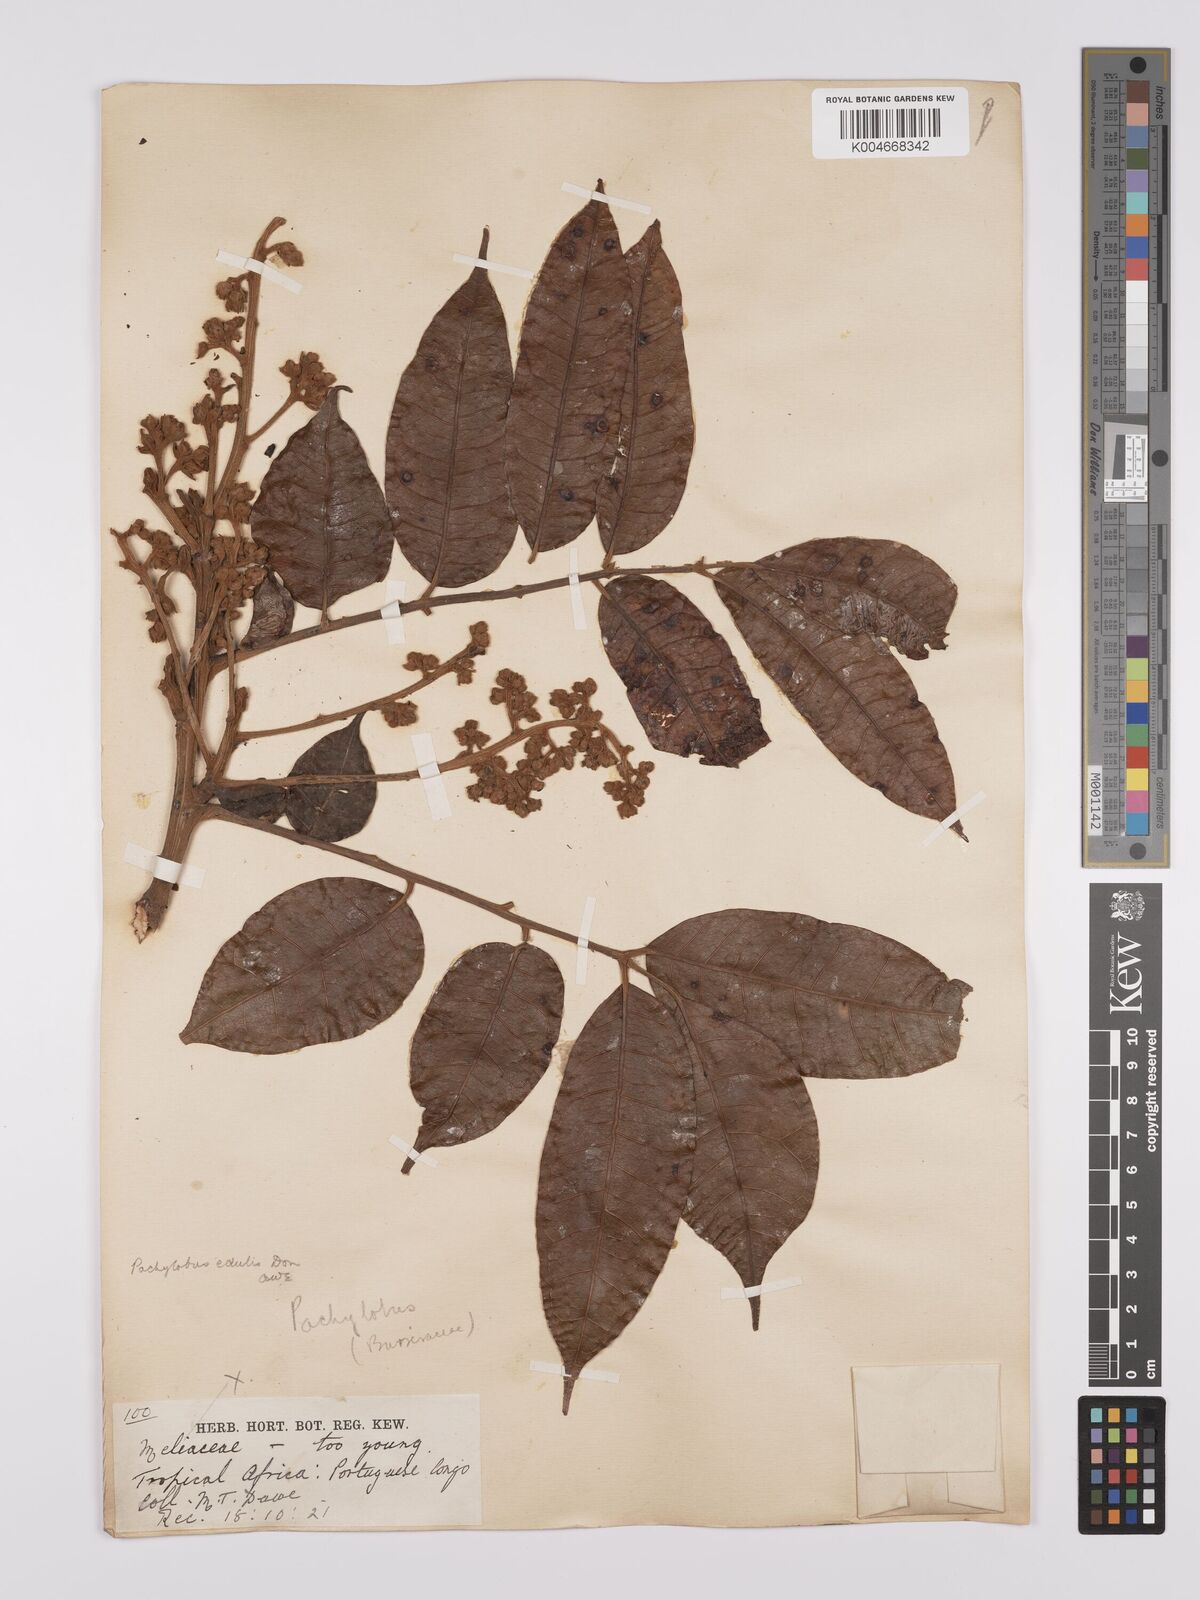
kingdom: Plantae
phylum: Tracheophyta
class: Magnoliopsida
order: Sapindales
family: Burseraceae
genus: Pachylobus
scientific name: Pachylobus edulis
